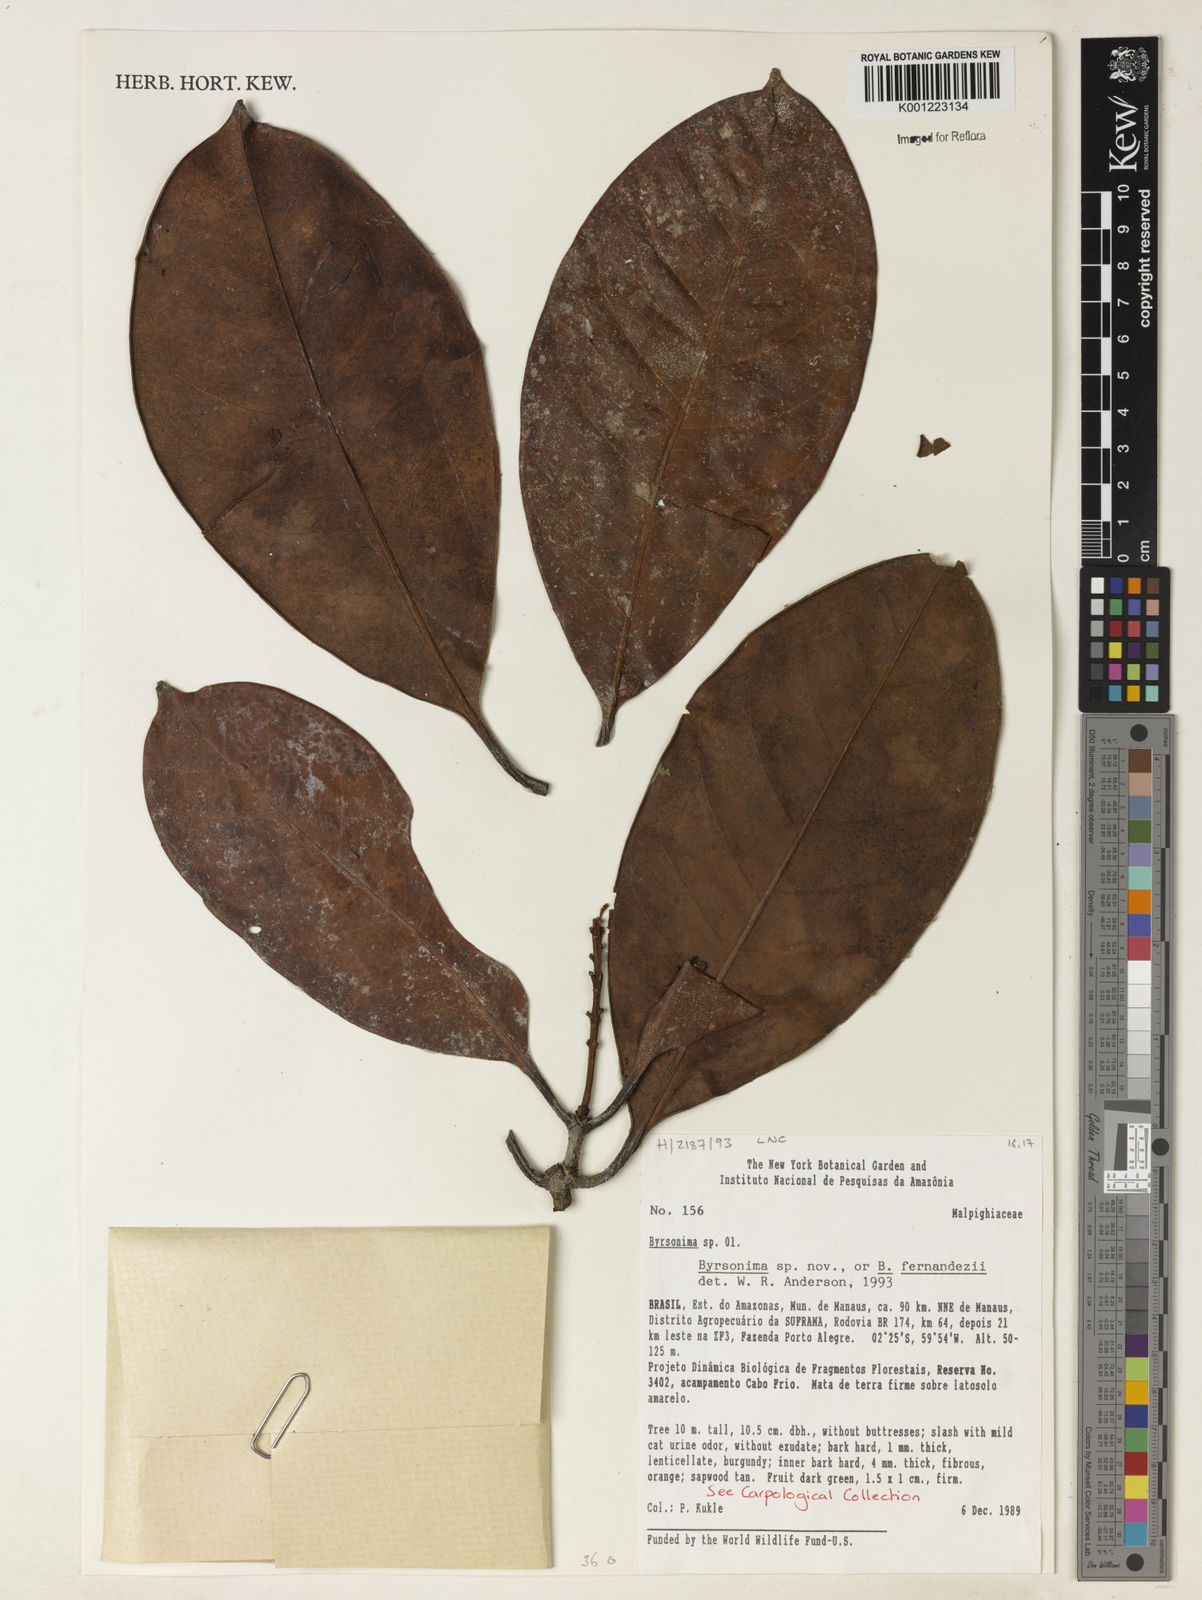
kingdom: Plantae
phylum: Tracheophyta
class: Magnoliopsida
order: Malpighiales
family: Malpighiaceae
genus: Byrsonima
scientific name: Byrsonima
